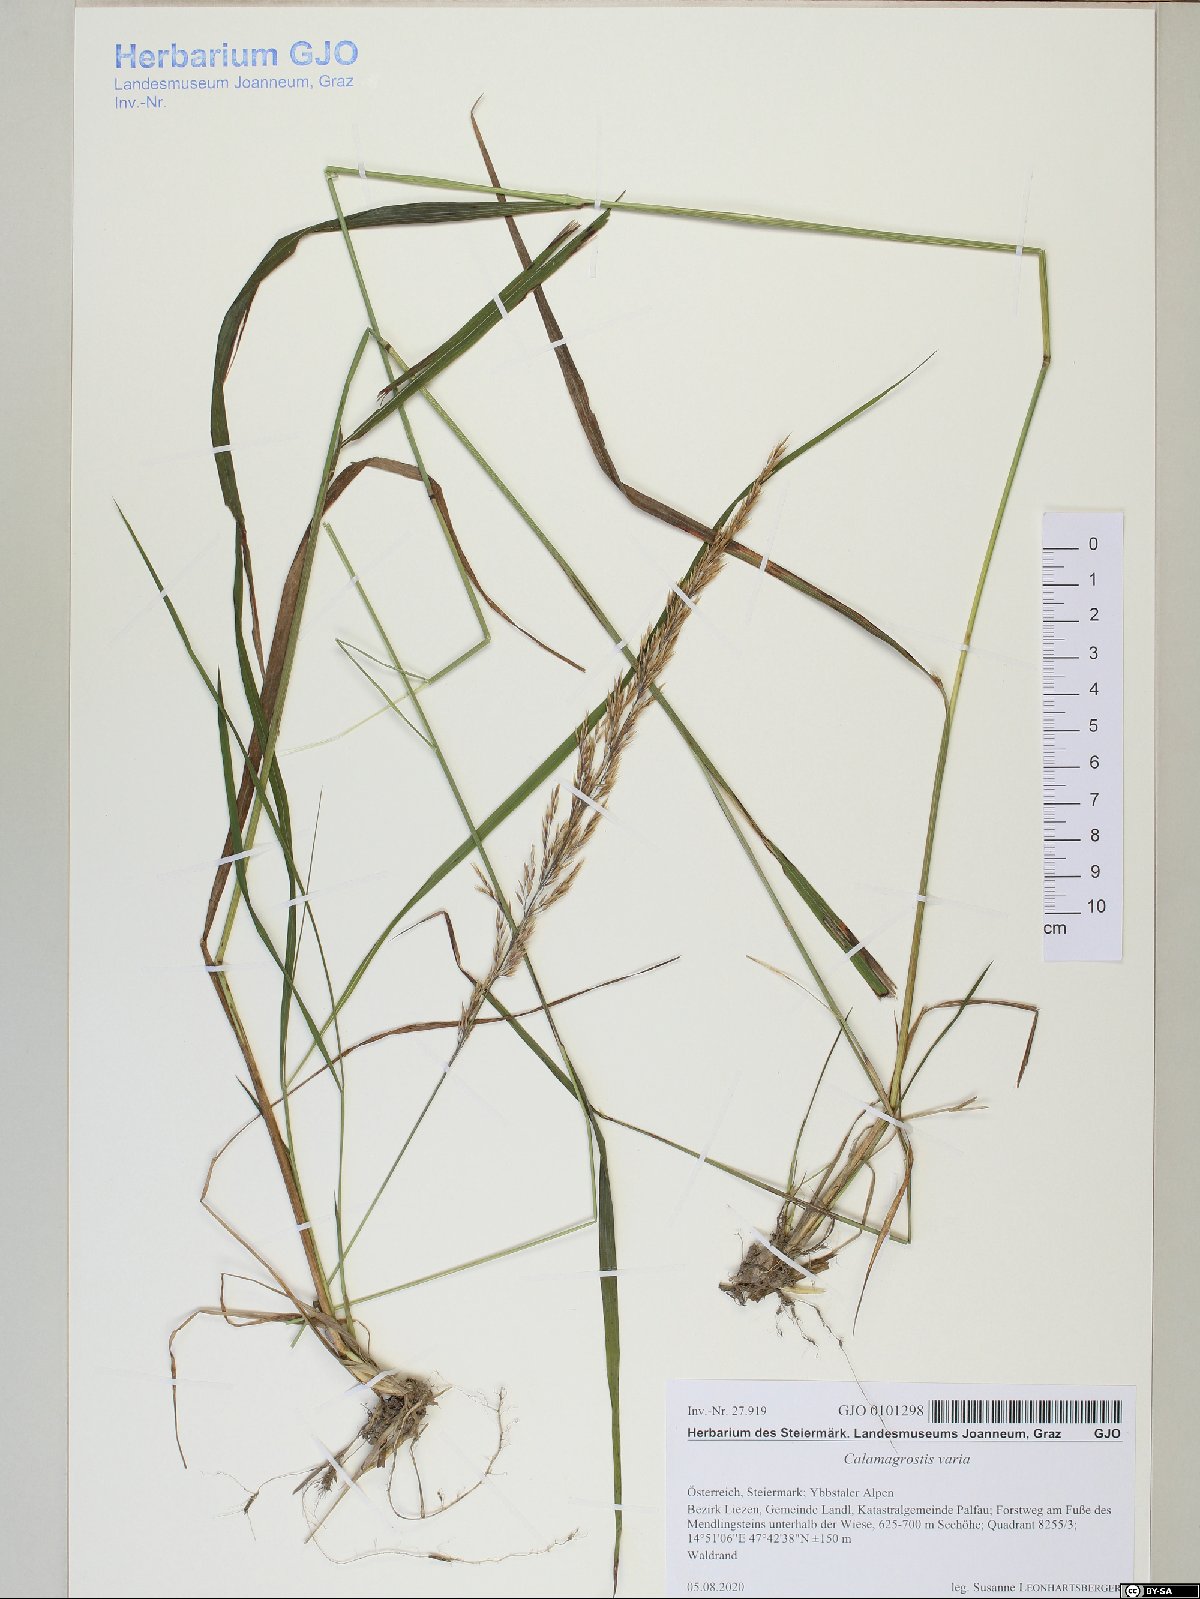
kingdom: Plantae
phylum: Tracheophyta
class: Liliopsida
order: Poales
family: Poaceae
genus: Calamagrostis
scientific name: Calamagrostis varia
